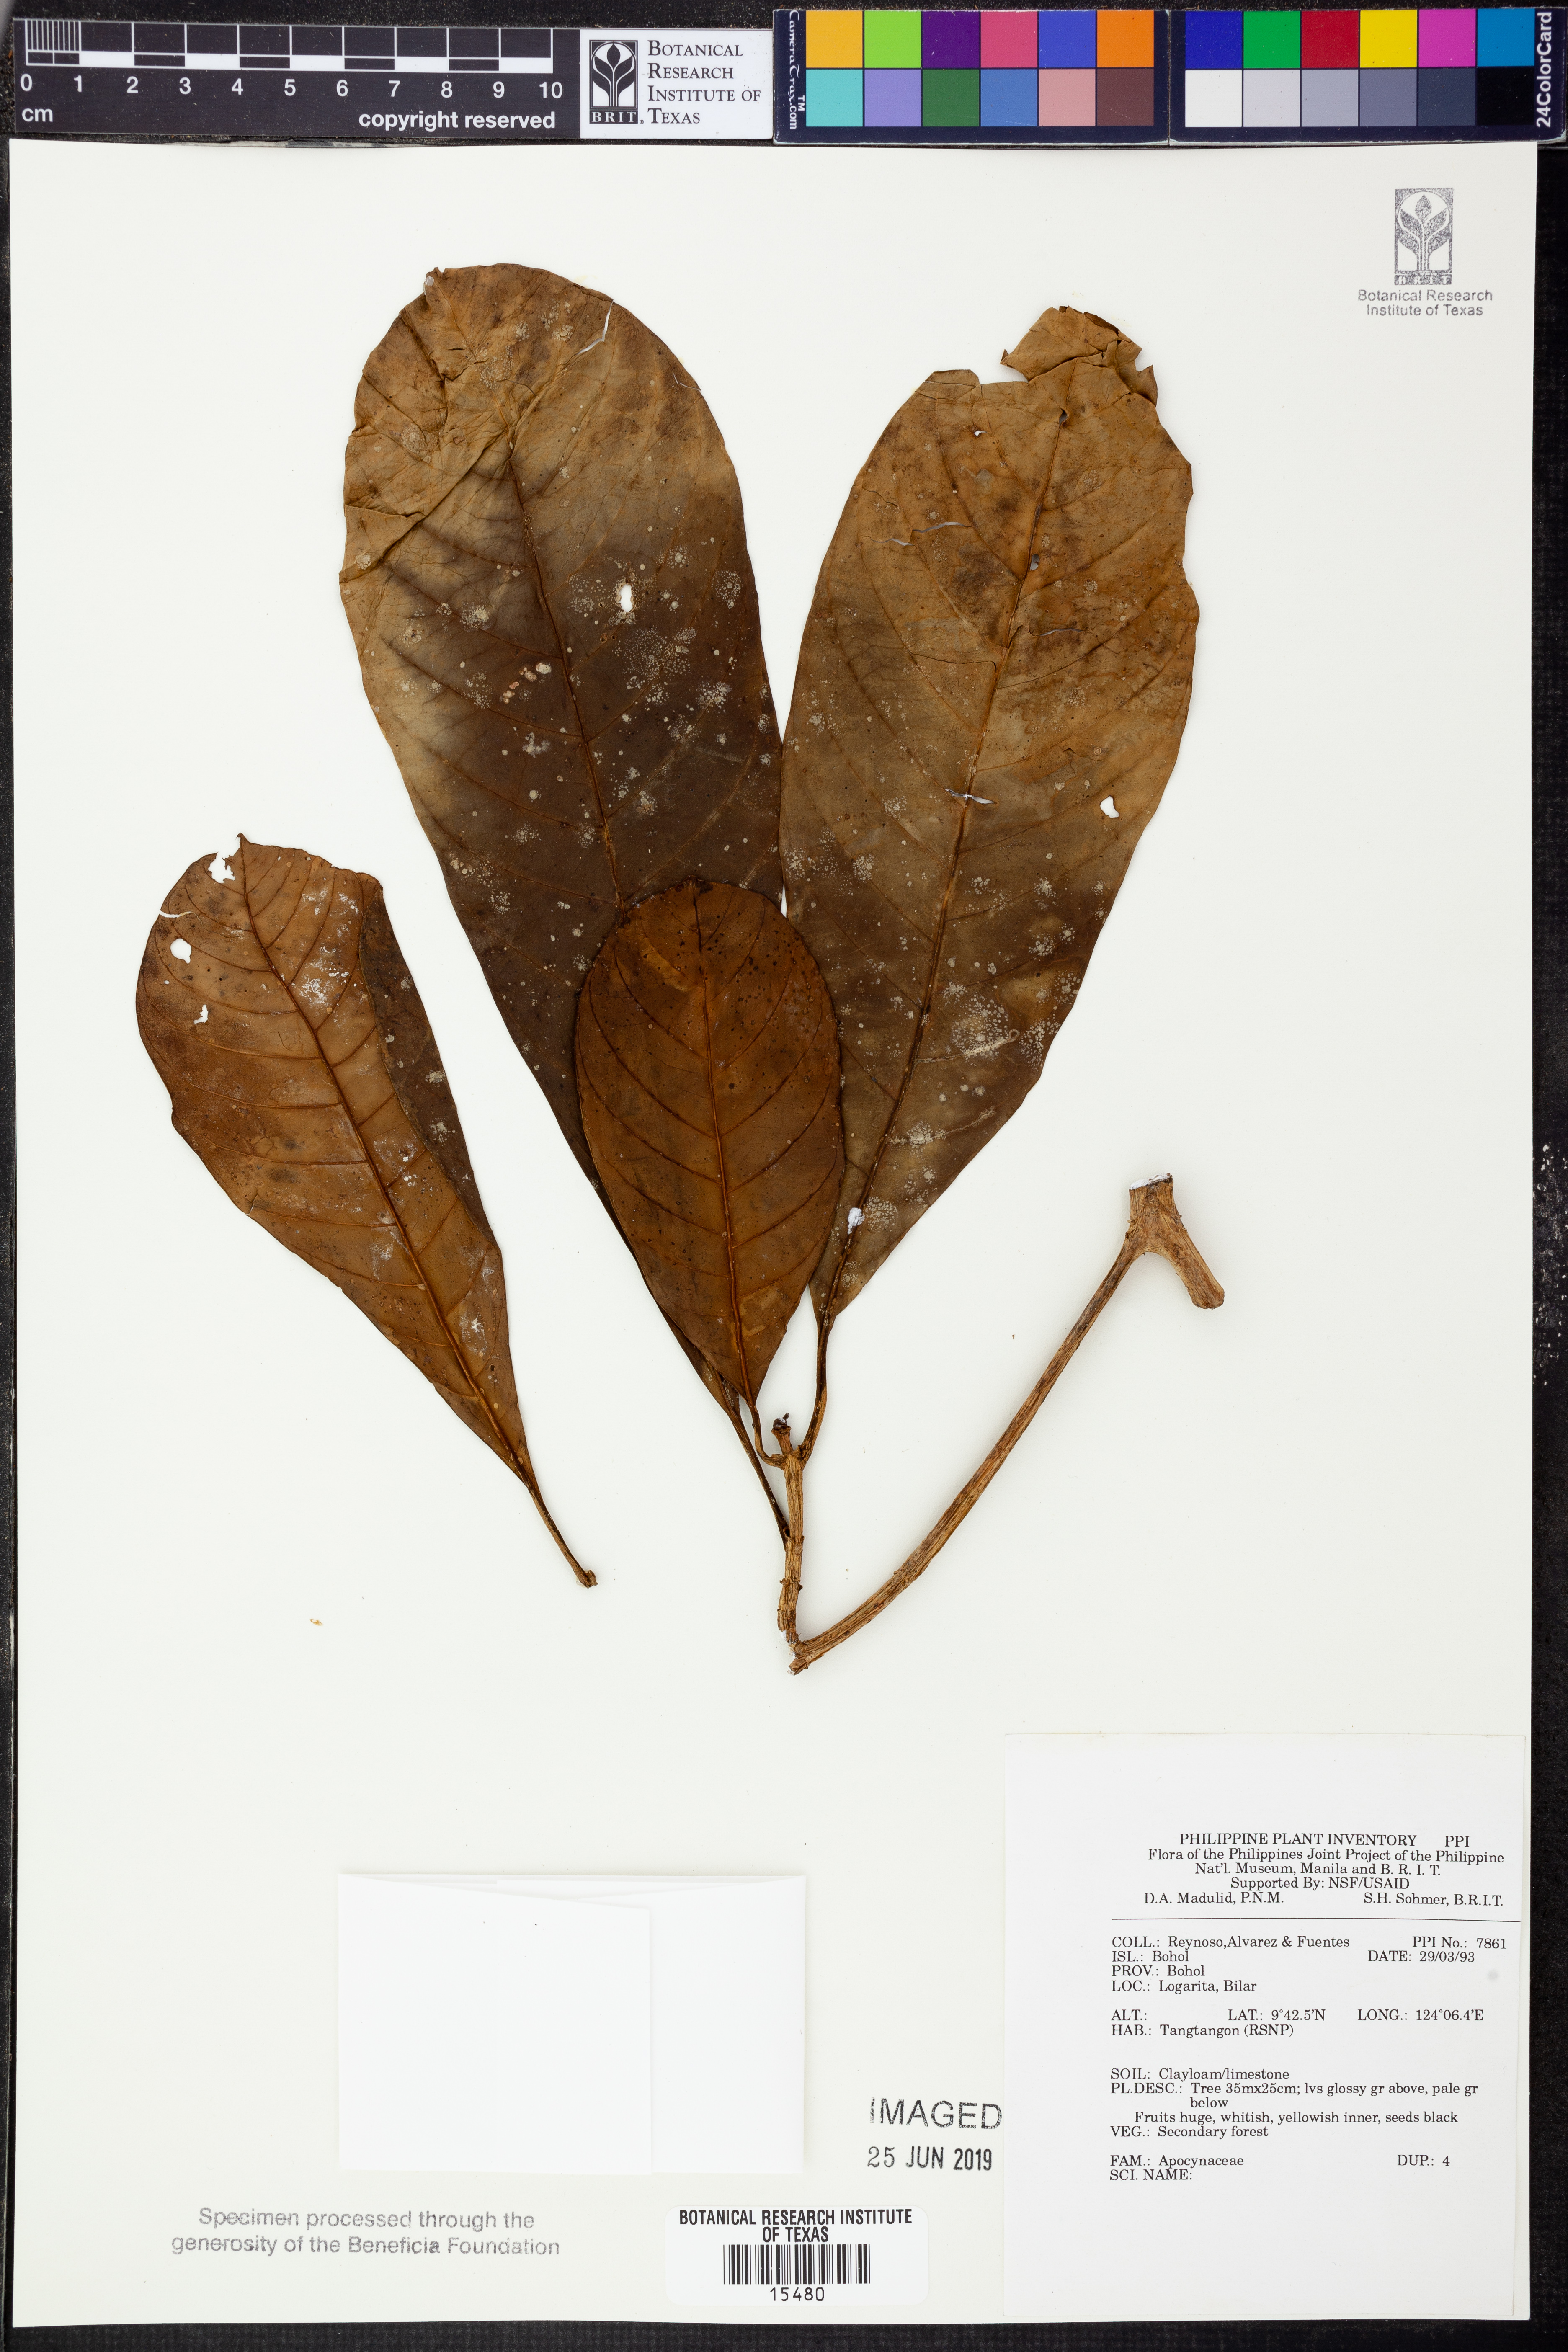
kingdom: Plantae
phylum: Tracheophyta
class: Magnoliopsida
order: Gentianales
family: Apocynaceae
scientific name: Apocynaceae
